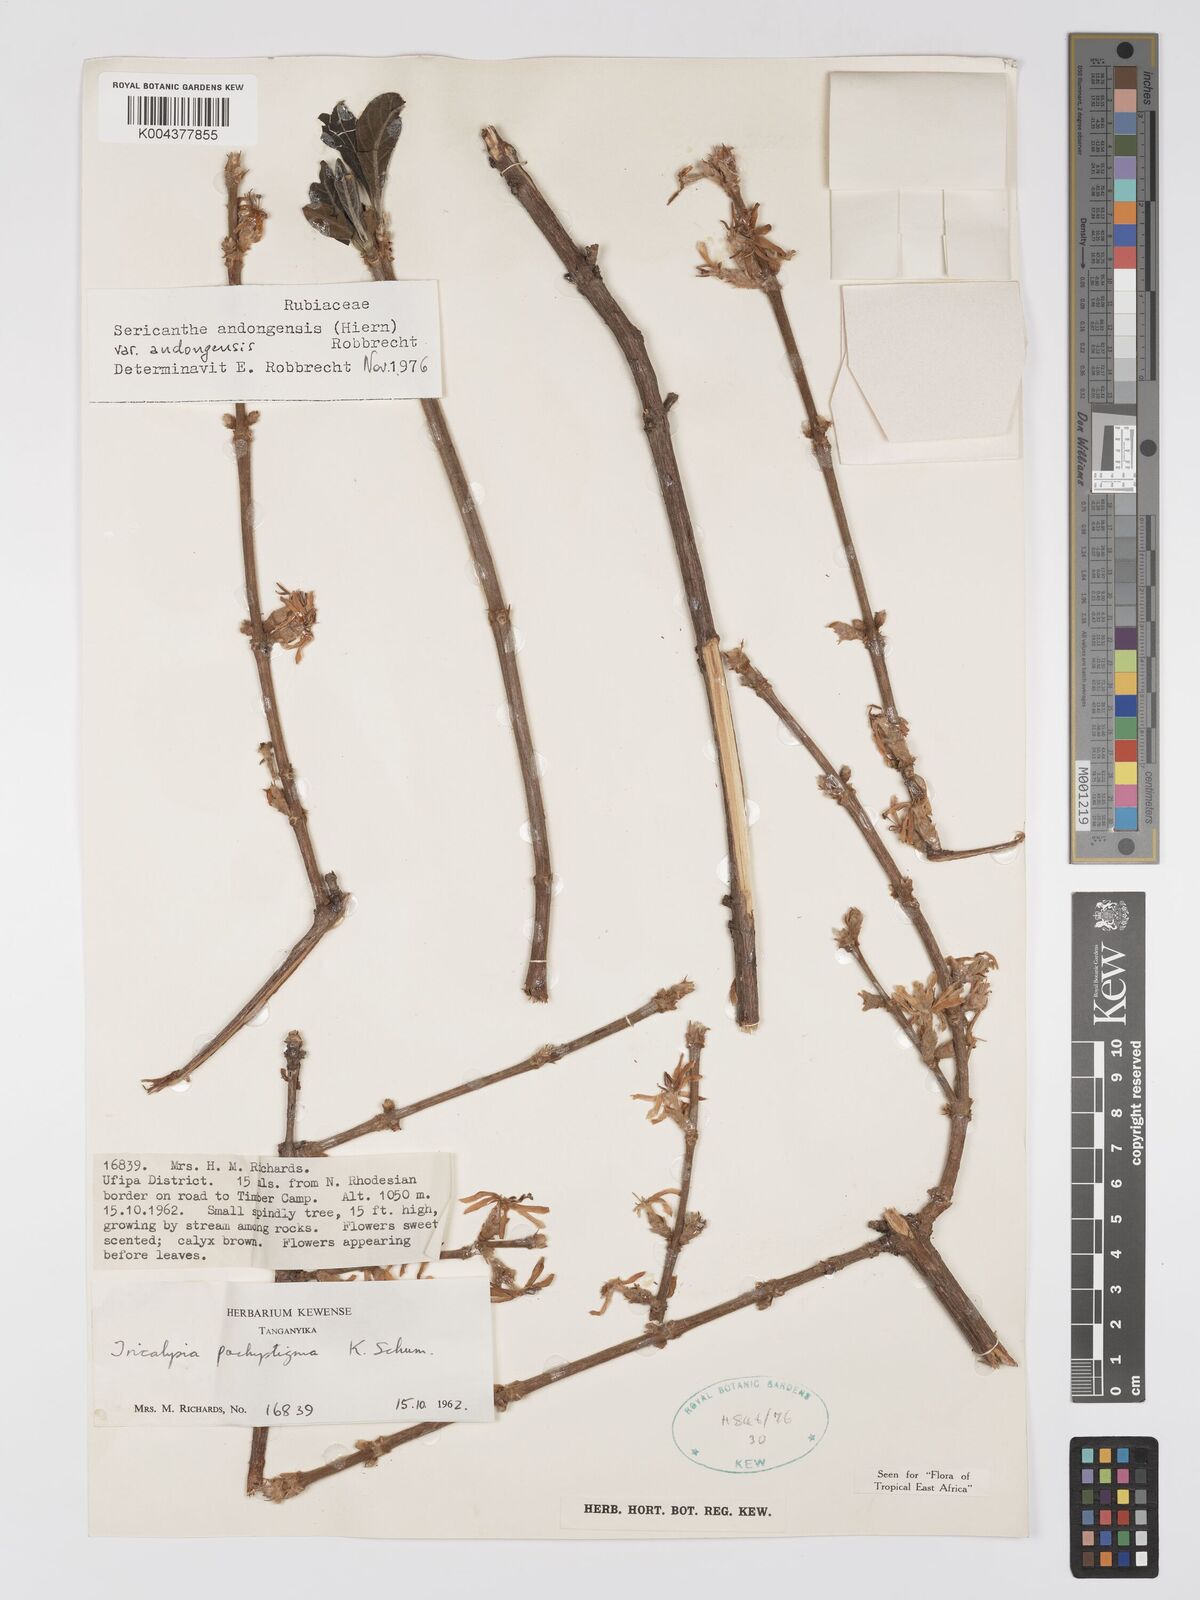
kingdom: Plantae
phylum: Tracheophyta
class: Magnoliopsida
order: Gentianales
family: Rubiaceae
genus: Sericanthe
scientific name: Sericanthe andongensis
